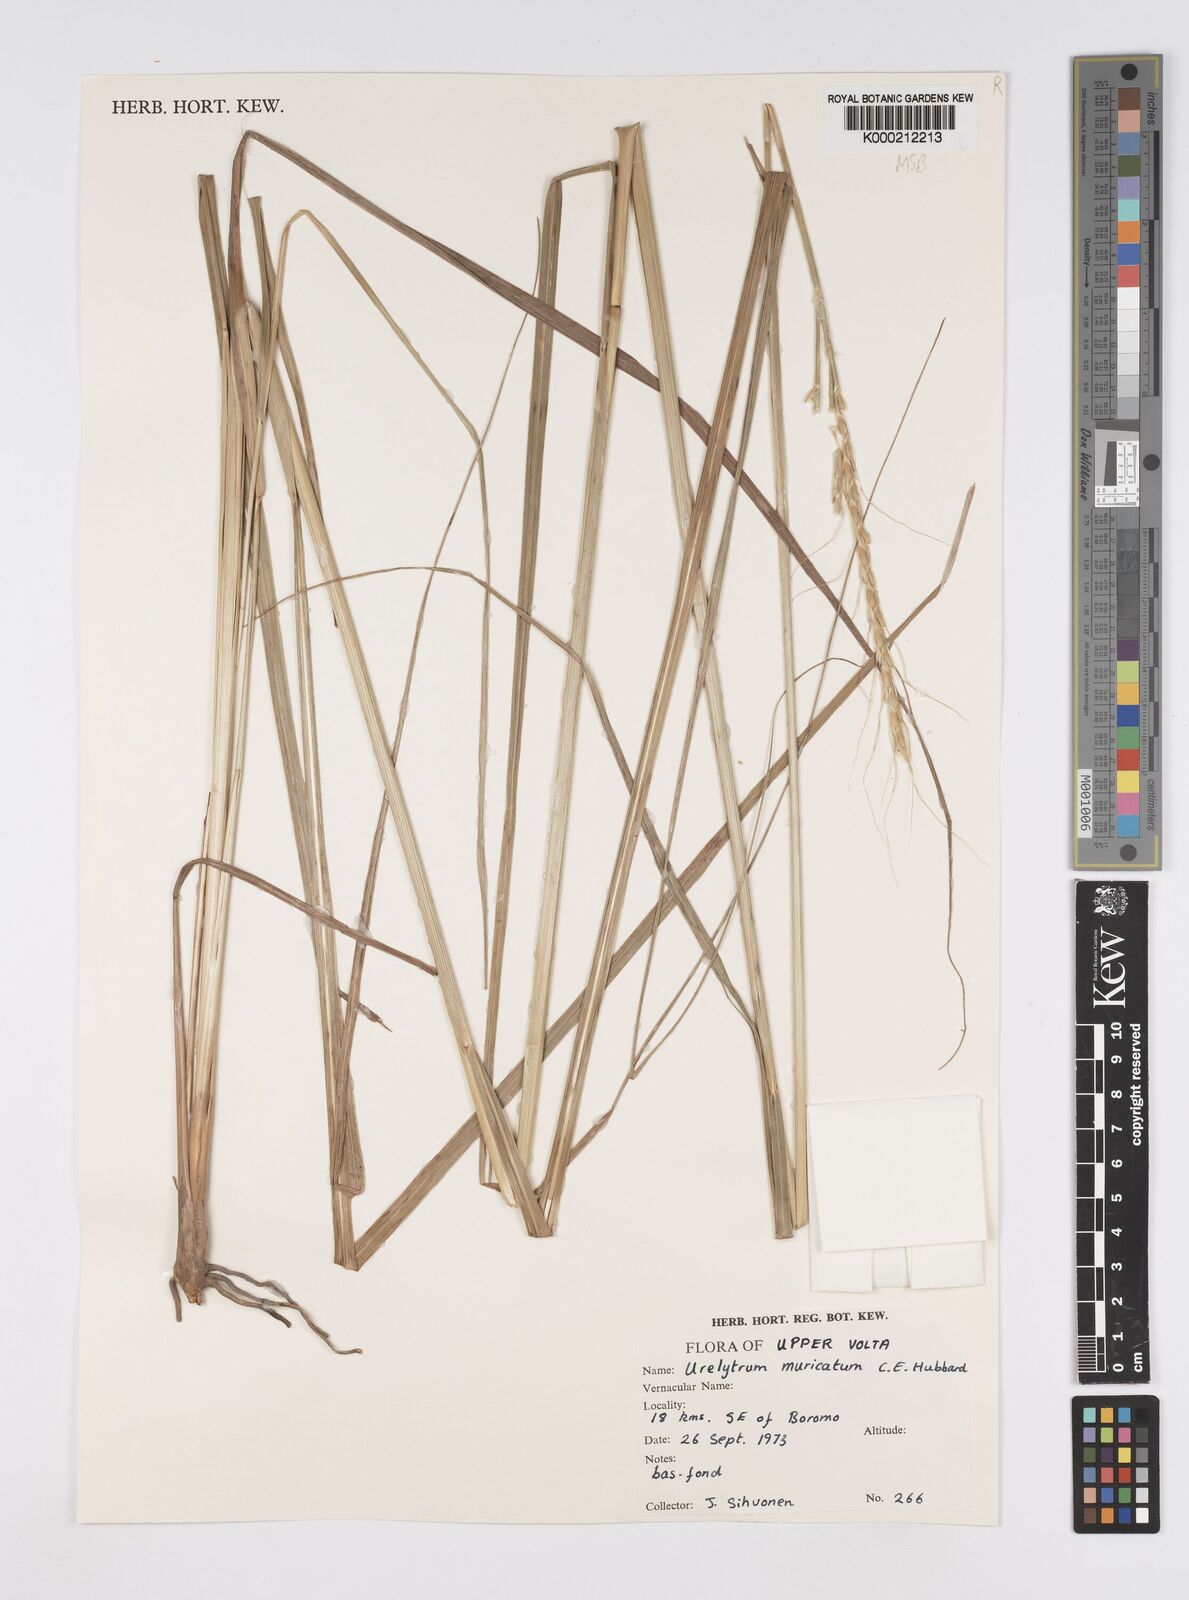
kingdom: Plantae
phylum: Tracheophyta
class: Liliopsida
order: Poales
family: Poaceae
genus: Urelytrum
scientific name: Urelytrum muricatum
